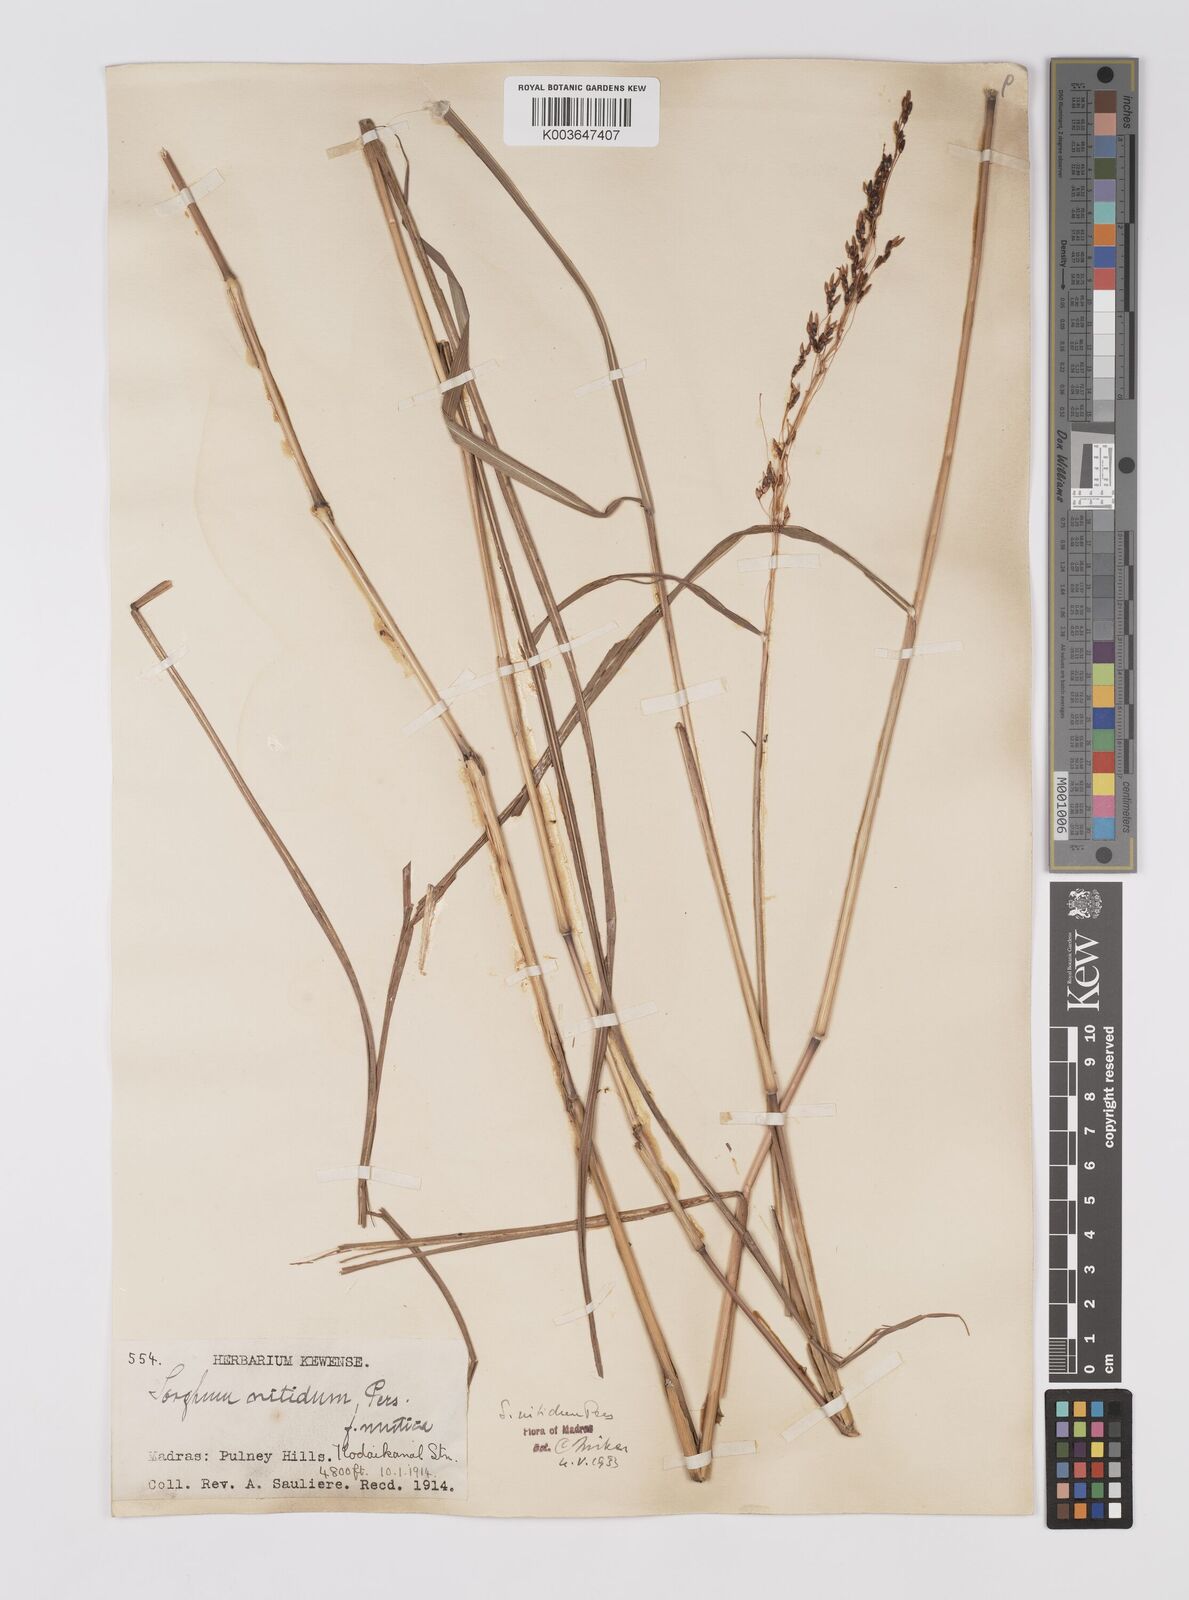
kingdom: Plantae
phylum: Tracheophyta
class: Liliopsida
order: Poales
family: Poaceae
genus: Sorghum
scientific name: Sorghum nitidum
